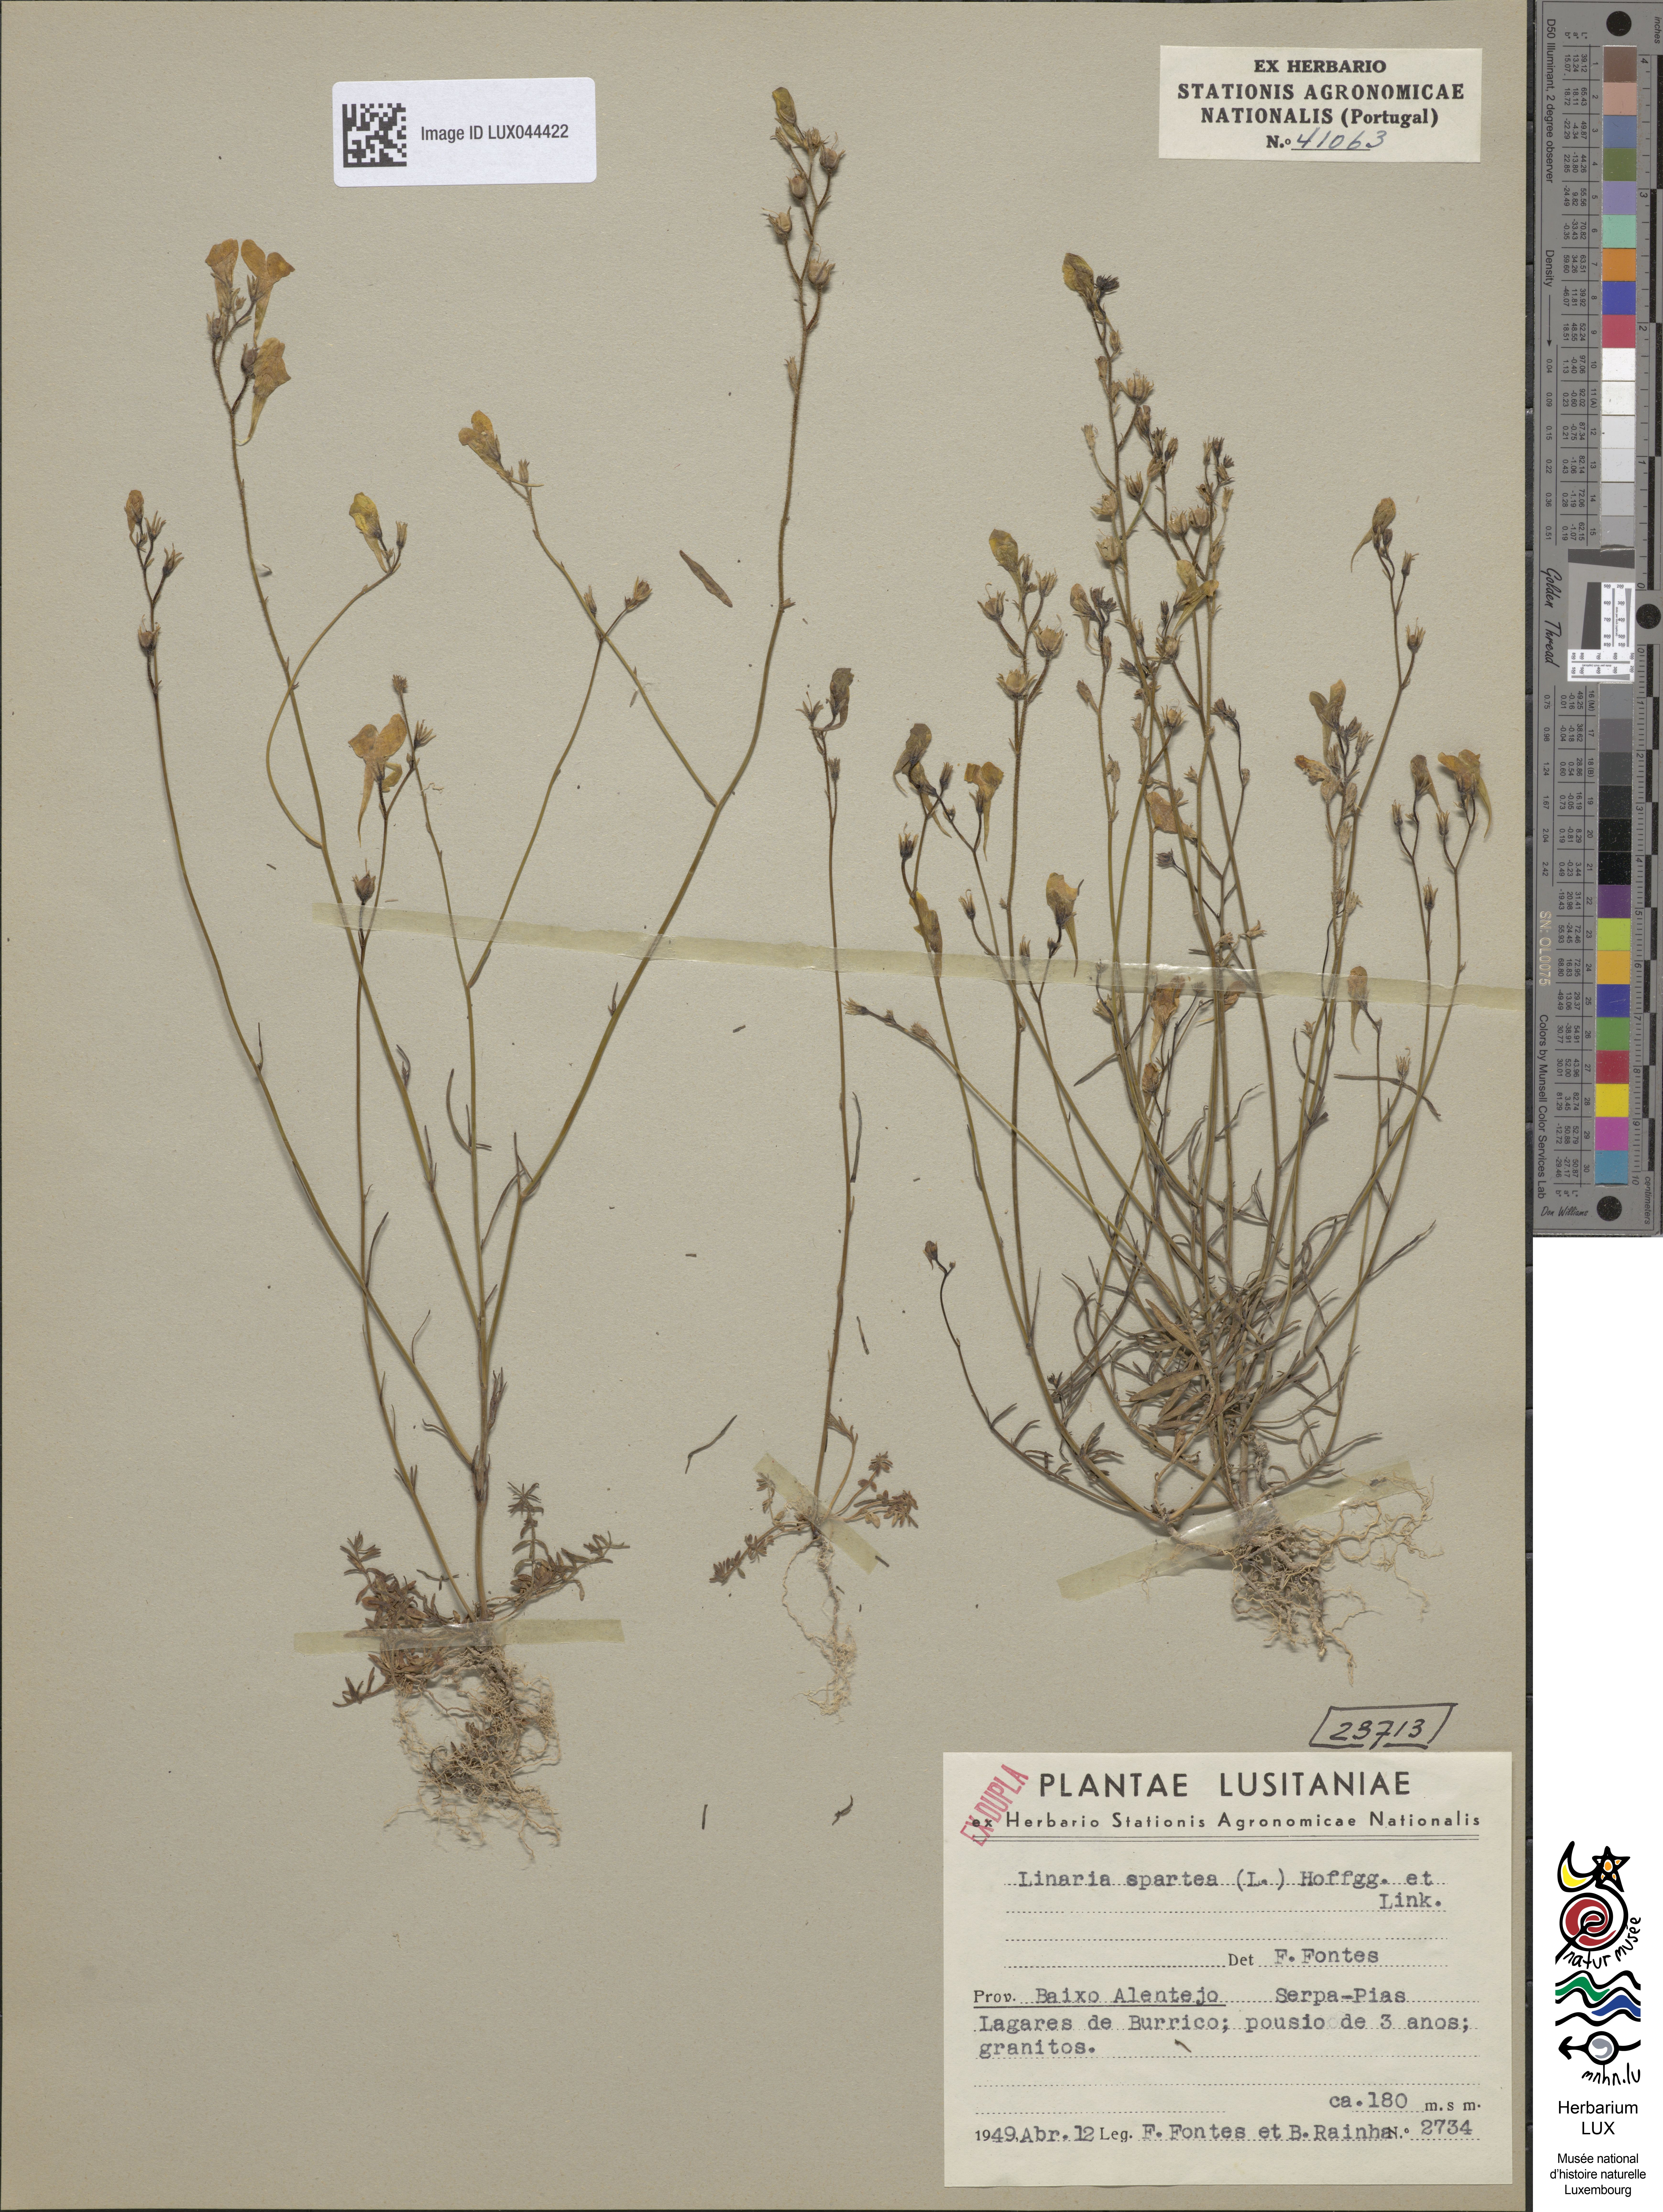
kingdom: Plantae
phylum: Tracheophyta
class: Magnoliopsida
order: Lamiales
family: Plantaginaceae
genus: Linaria
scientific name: Linaria spartea
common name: Ballast toadflax
